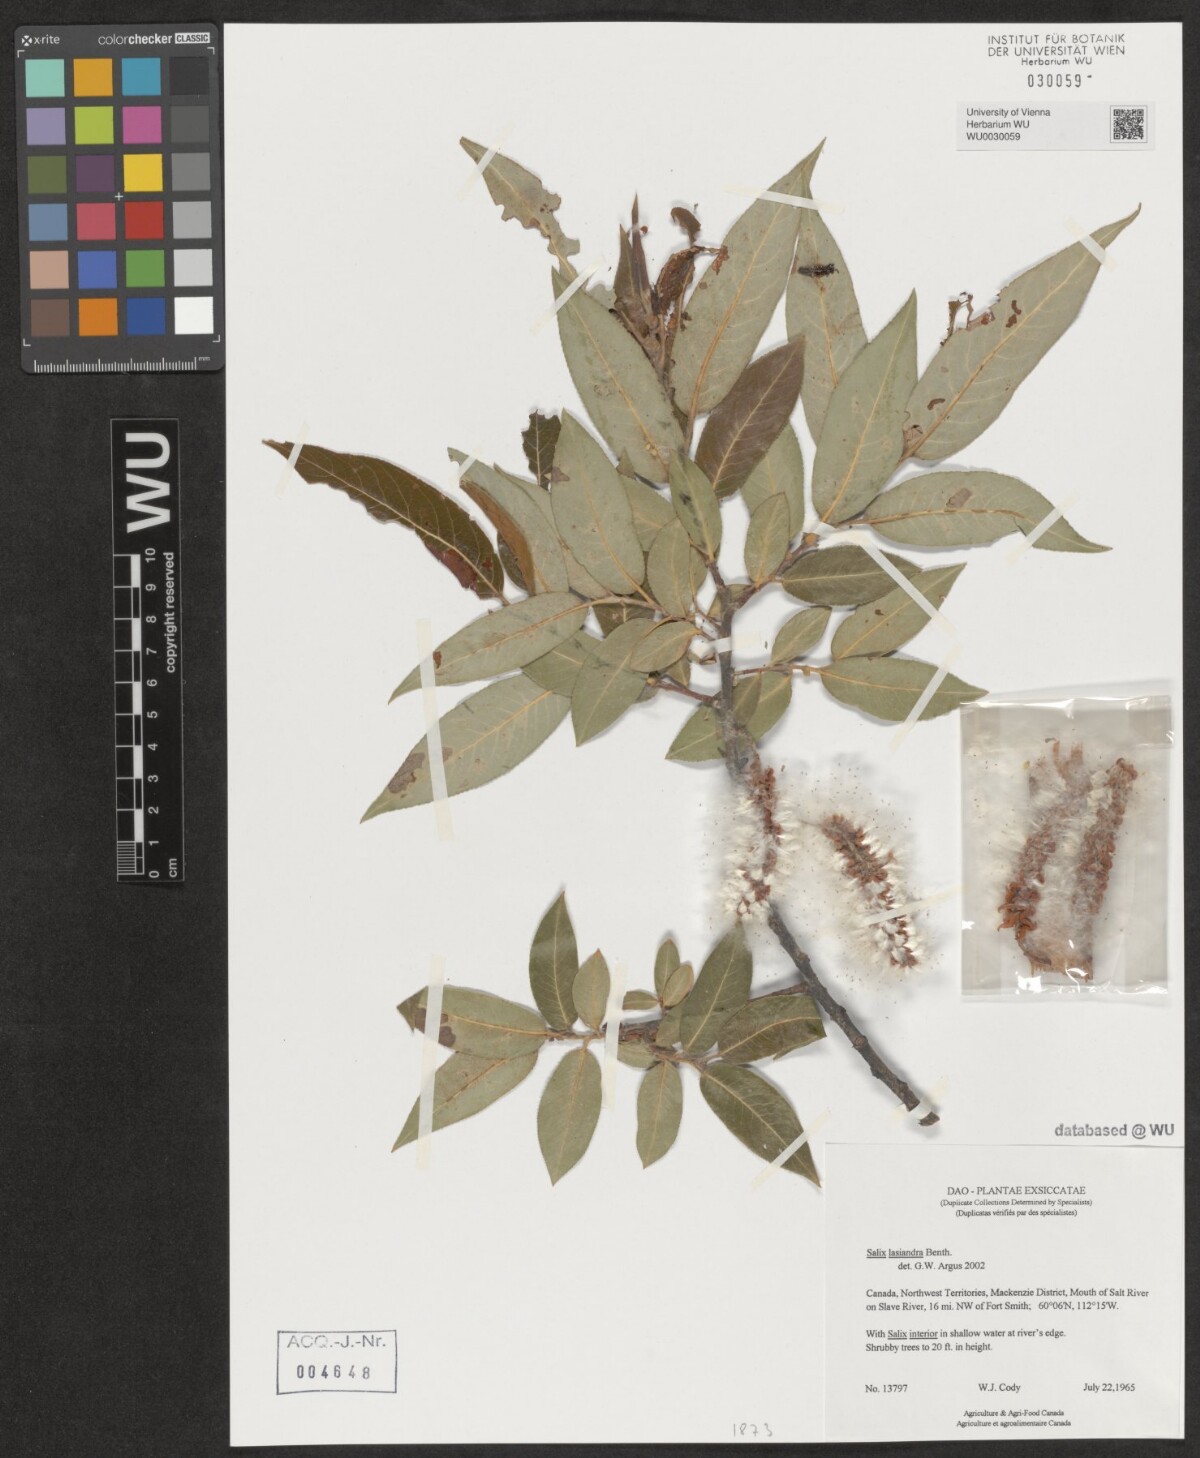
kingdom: Plantae
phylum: Tracheophyta
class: Magnoliopsida
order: Malpighiales
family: Salicaceae
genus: Salix
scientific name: Salix lucida
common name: Shining willow
